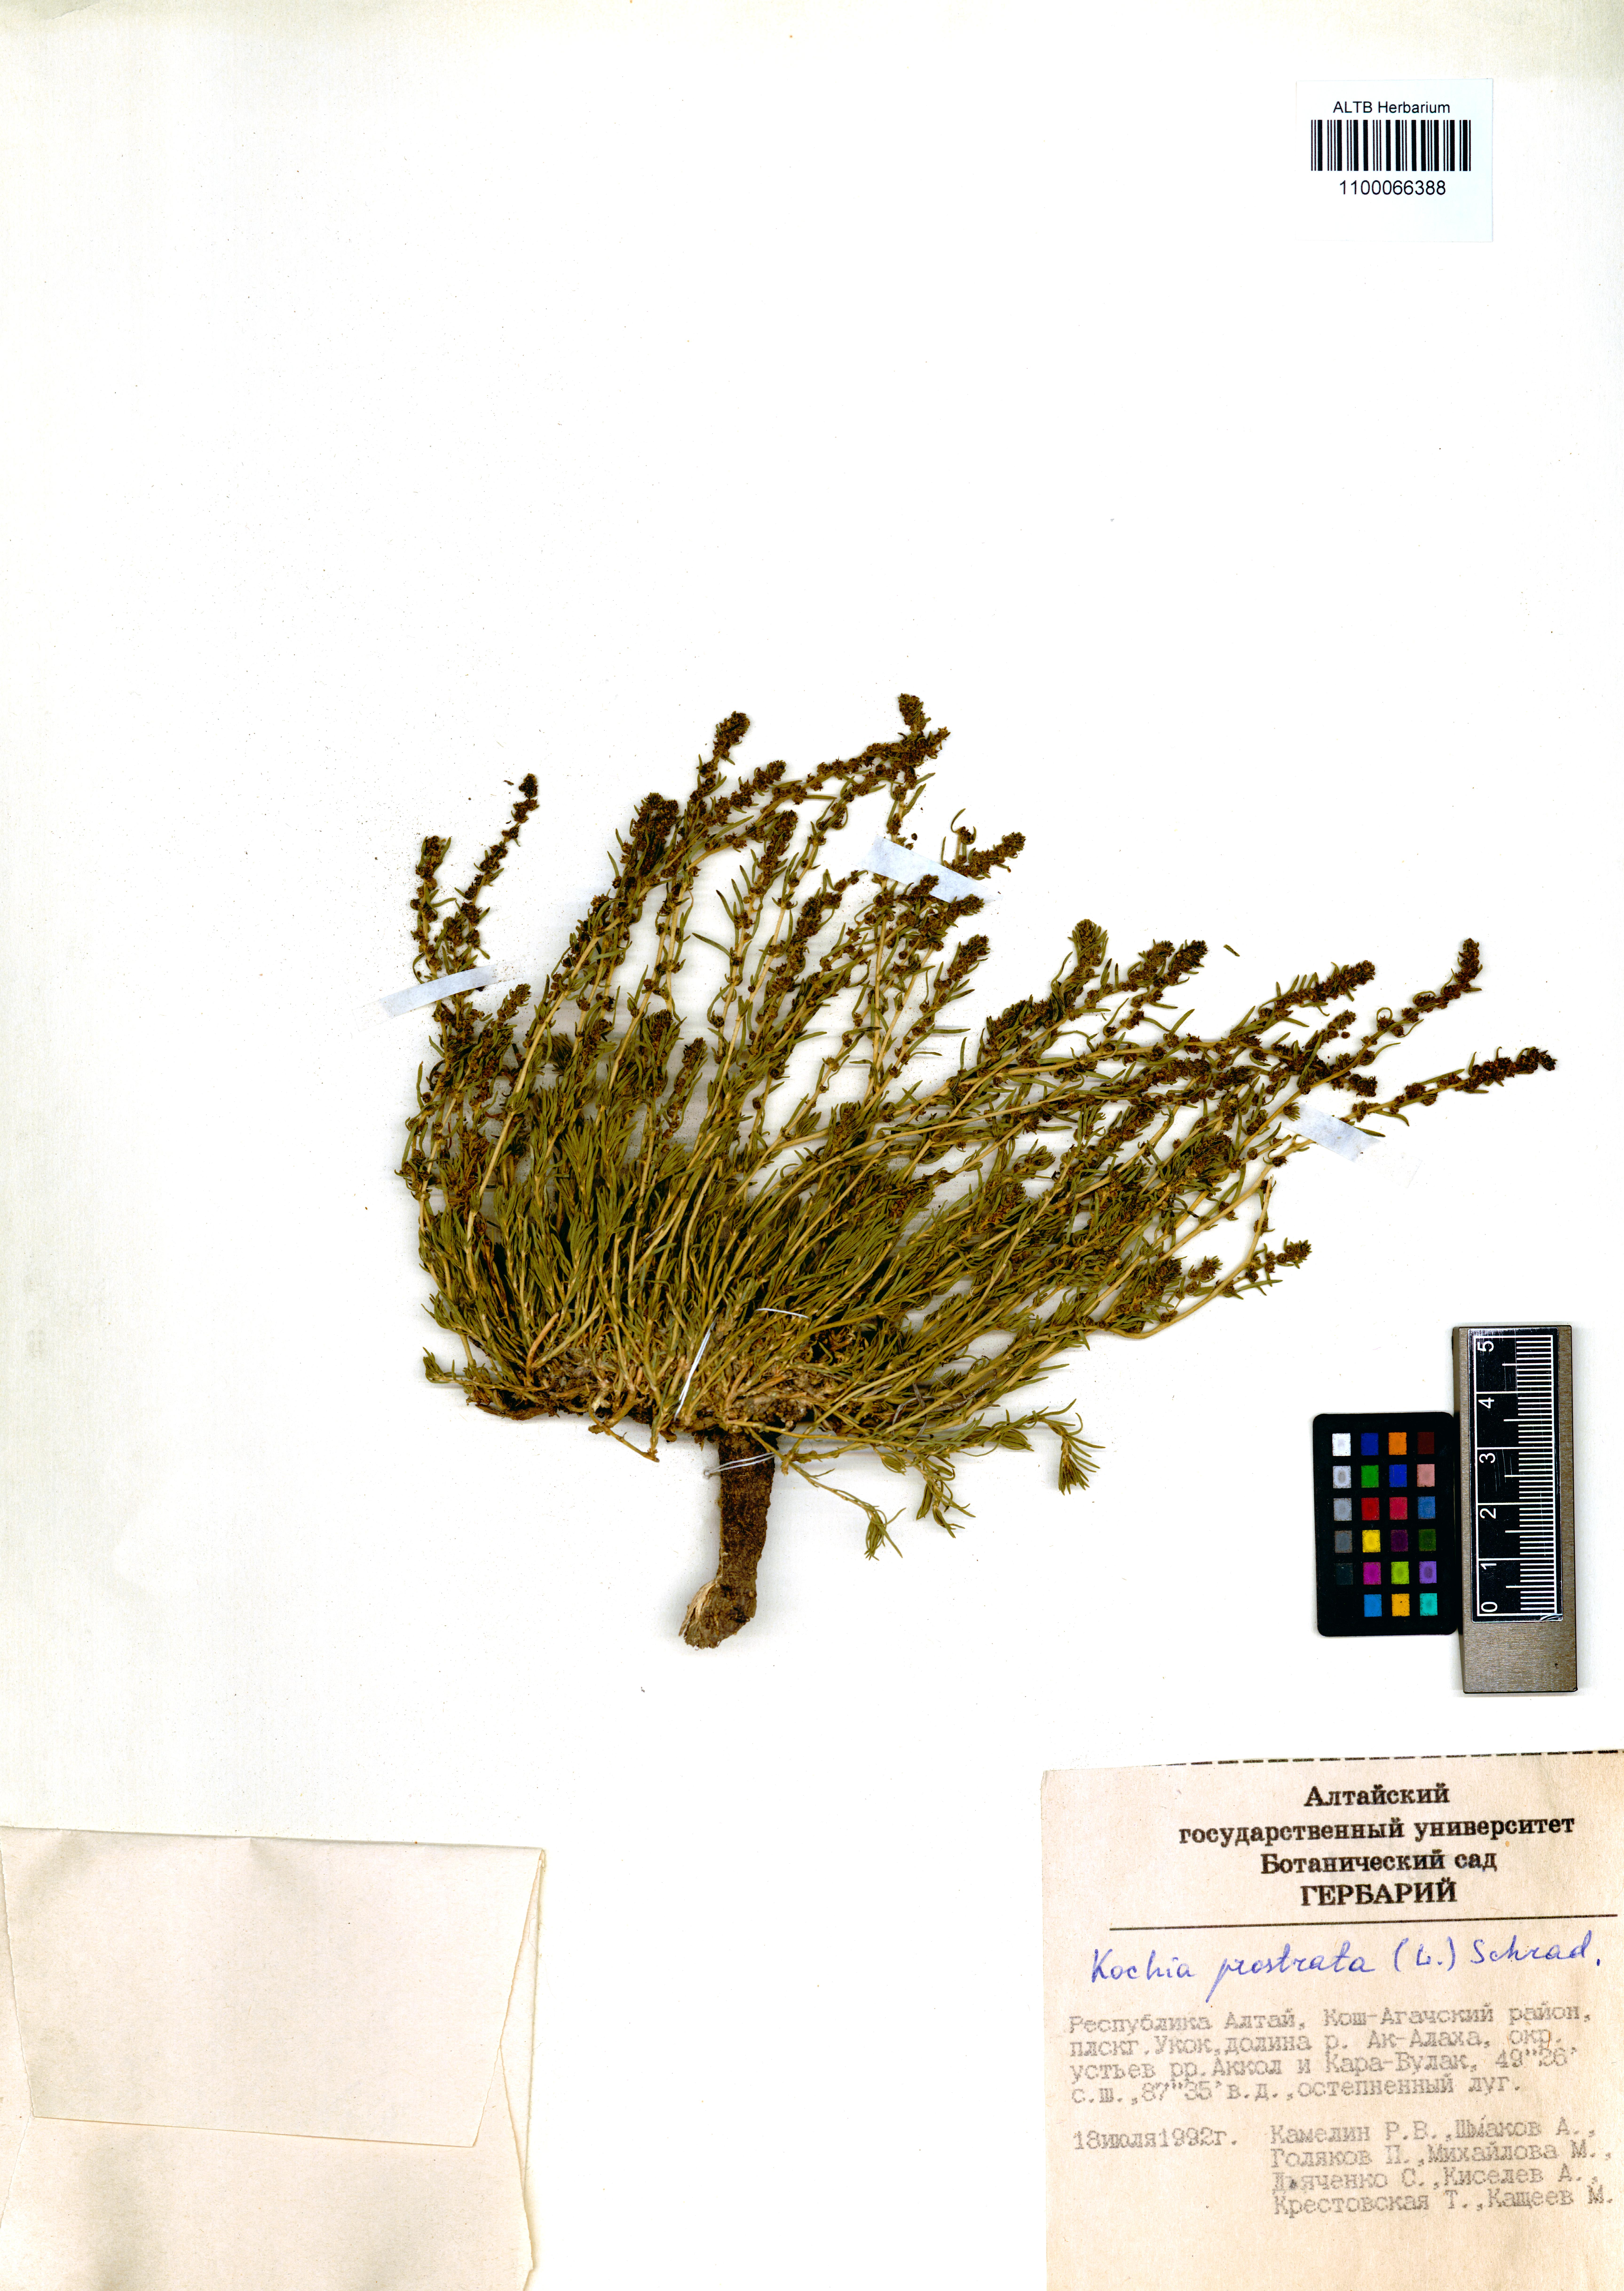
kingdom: Plantae
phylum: Tracheophyta
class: Magnoliopsida
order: Caryophyllales
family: Amaranthaceae
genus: Bassia
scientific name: Bassia prostrata
